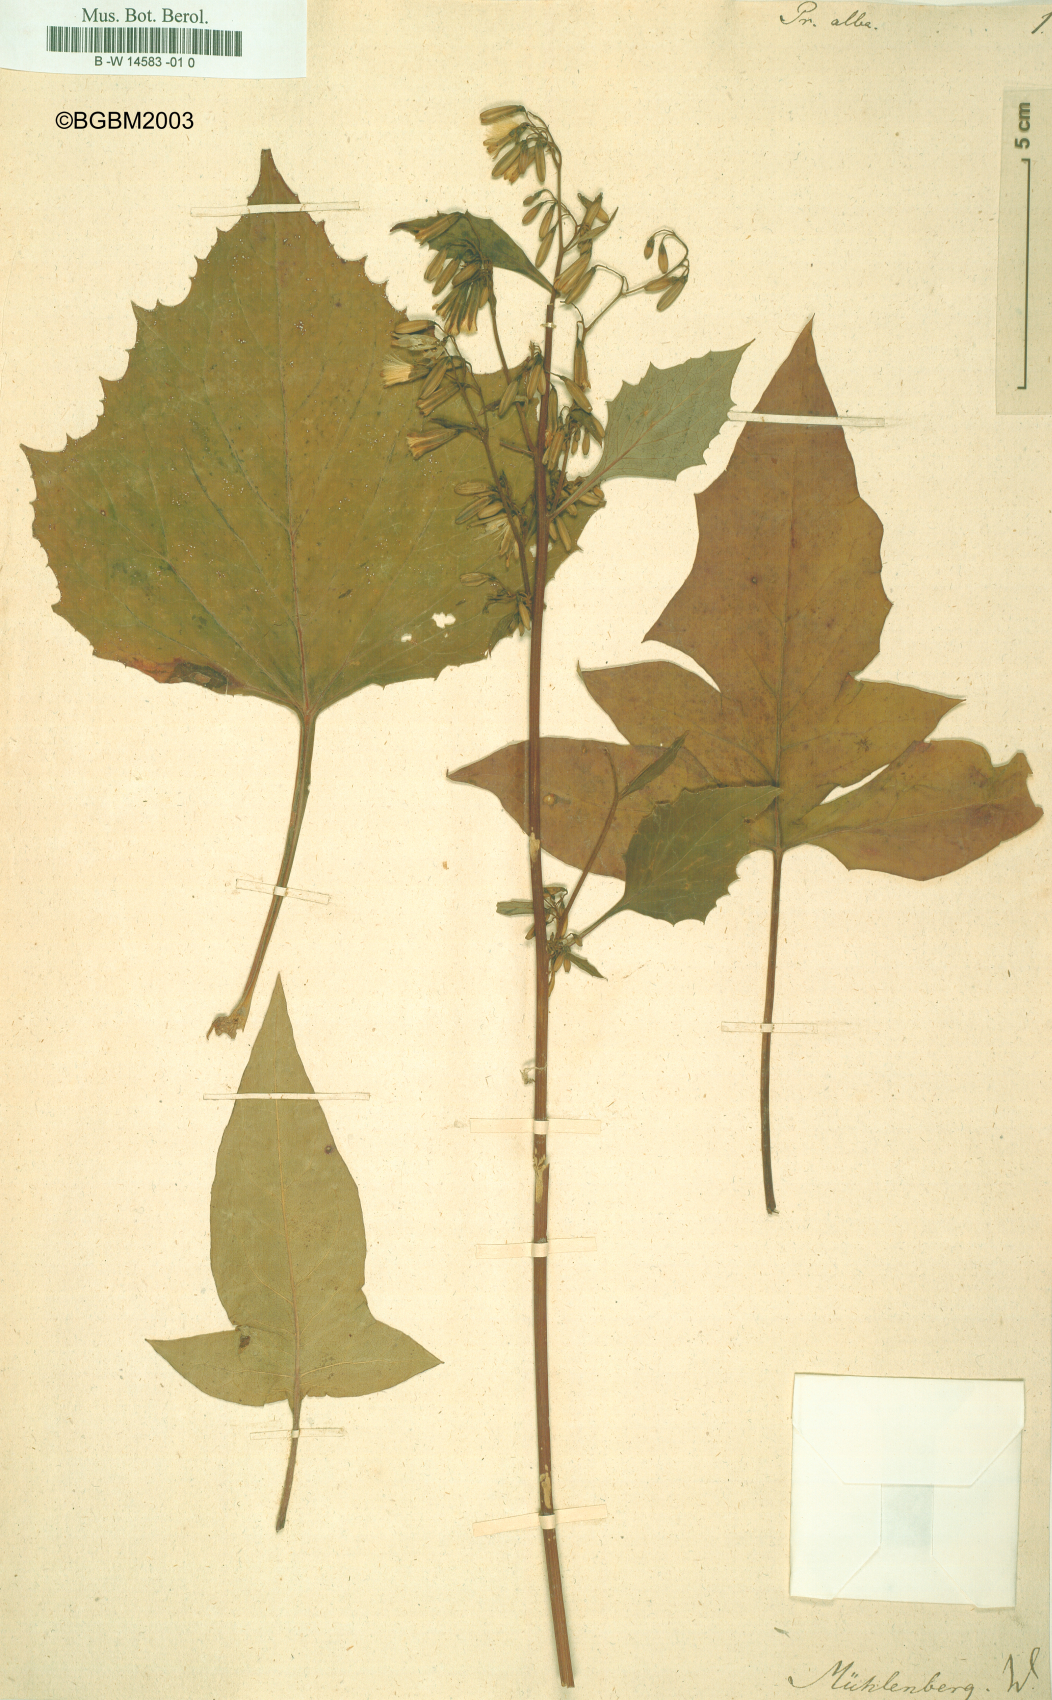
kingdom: Plantae
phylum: Tracheophyta
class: Magnoliopsida
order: Asterales
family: Asteraceae
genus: Nabalus
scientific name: Nabalus
